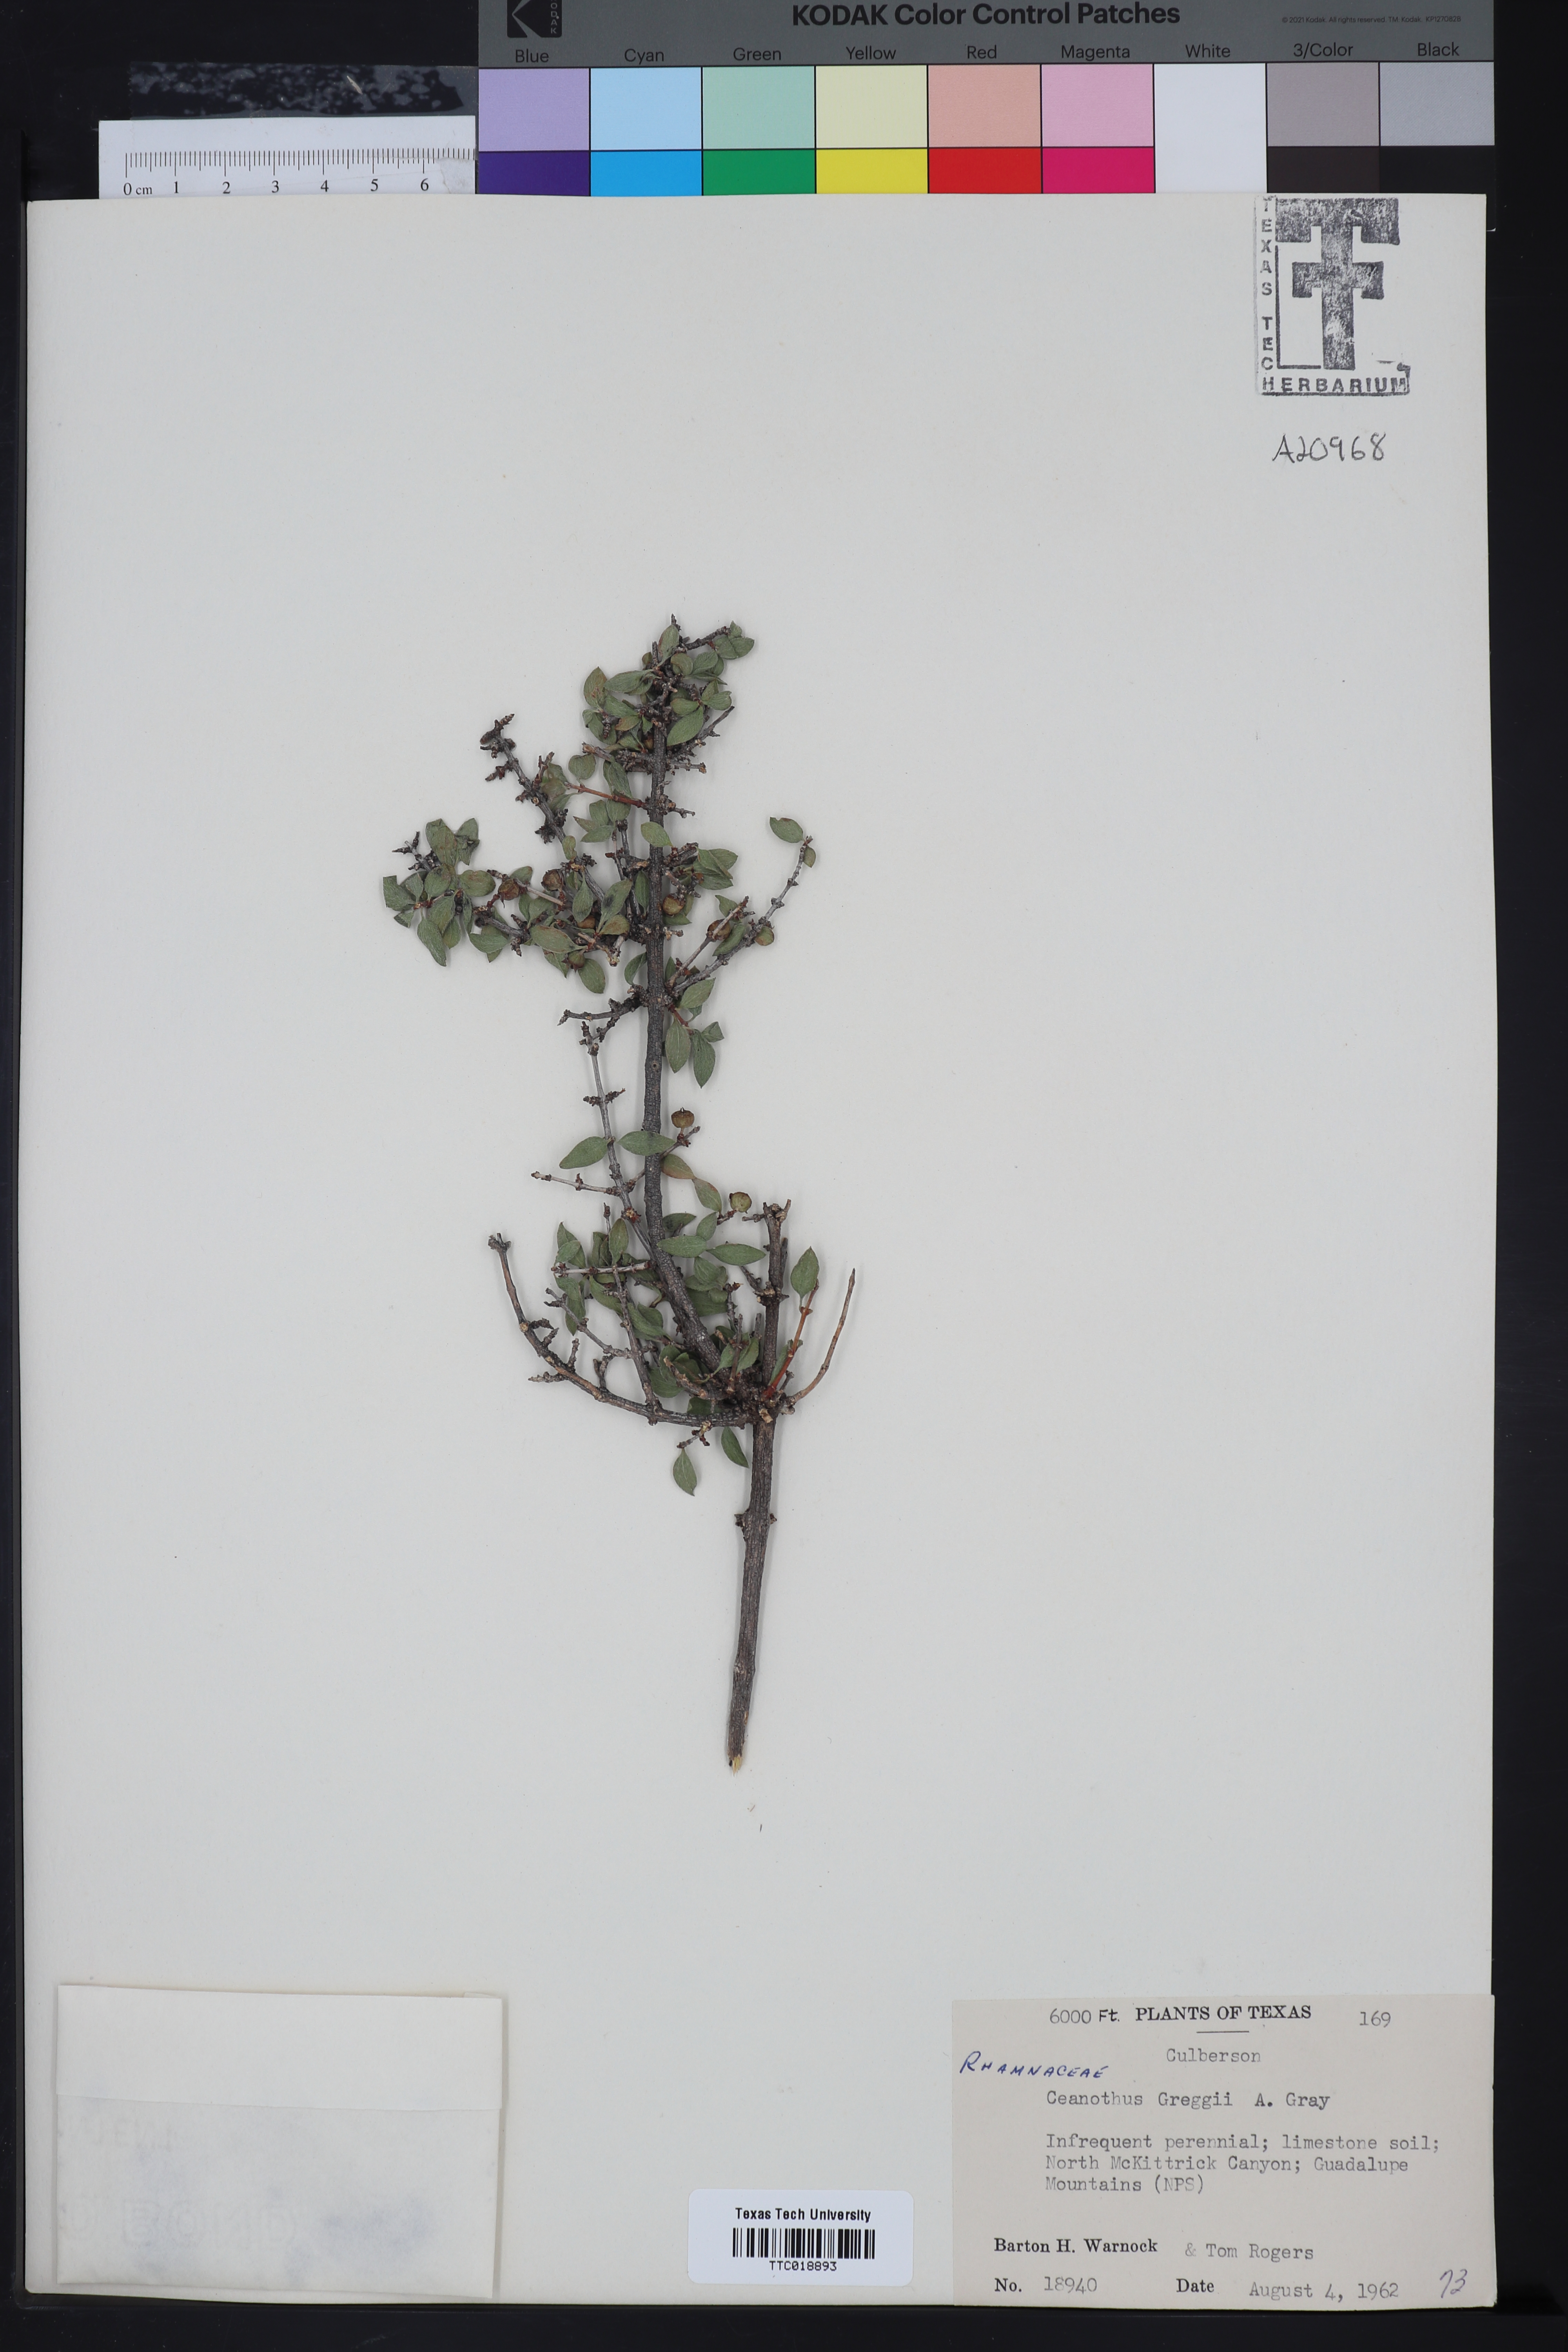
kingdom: Plantae
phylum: Tracheophyta
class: Magnoliopsida
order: Rosales
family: Rhamnaceae
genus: Ceanothus
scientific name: Ceanothus pauciflorus
